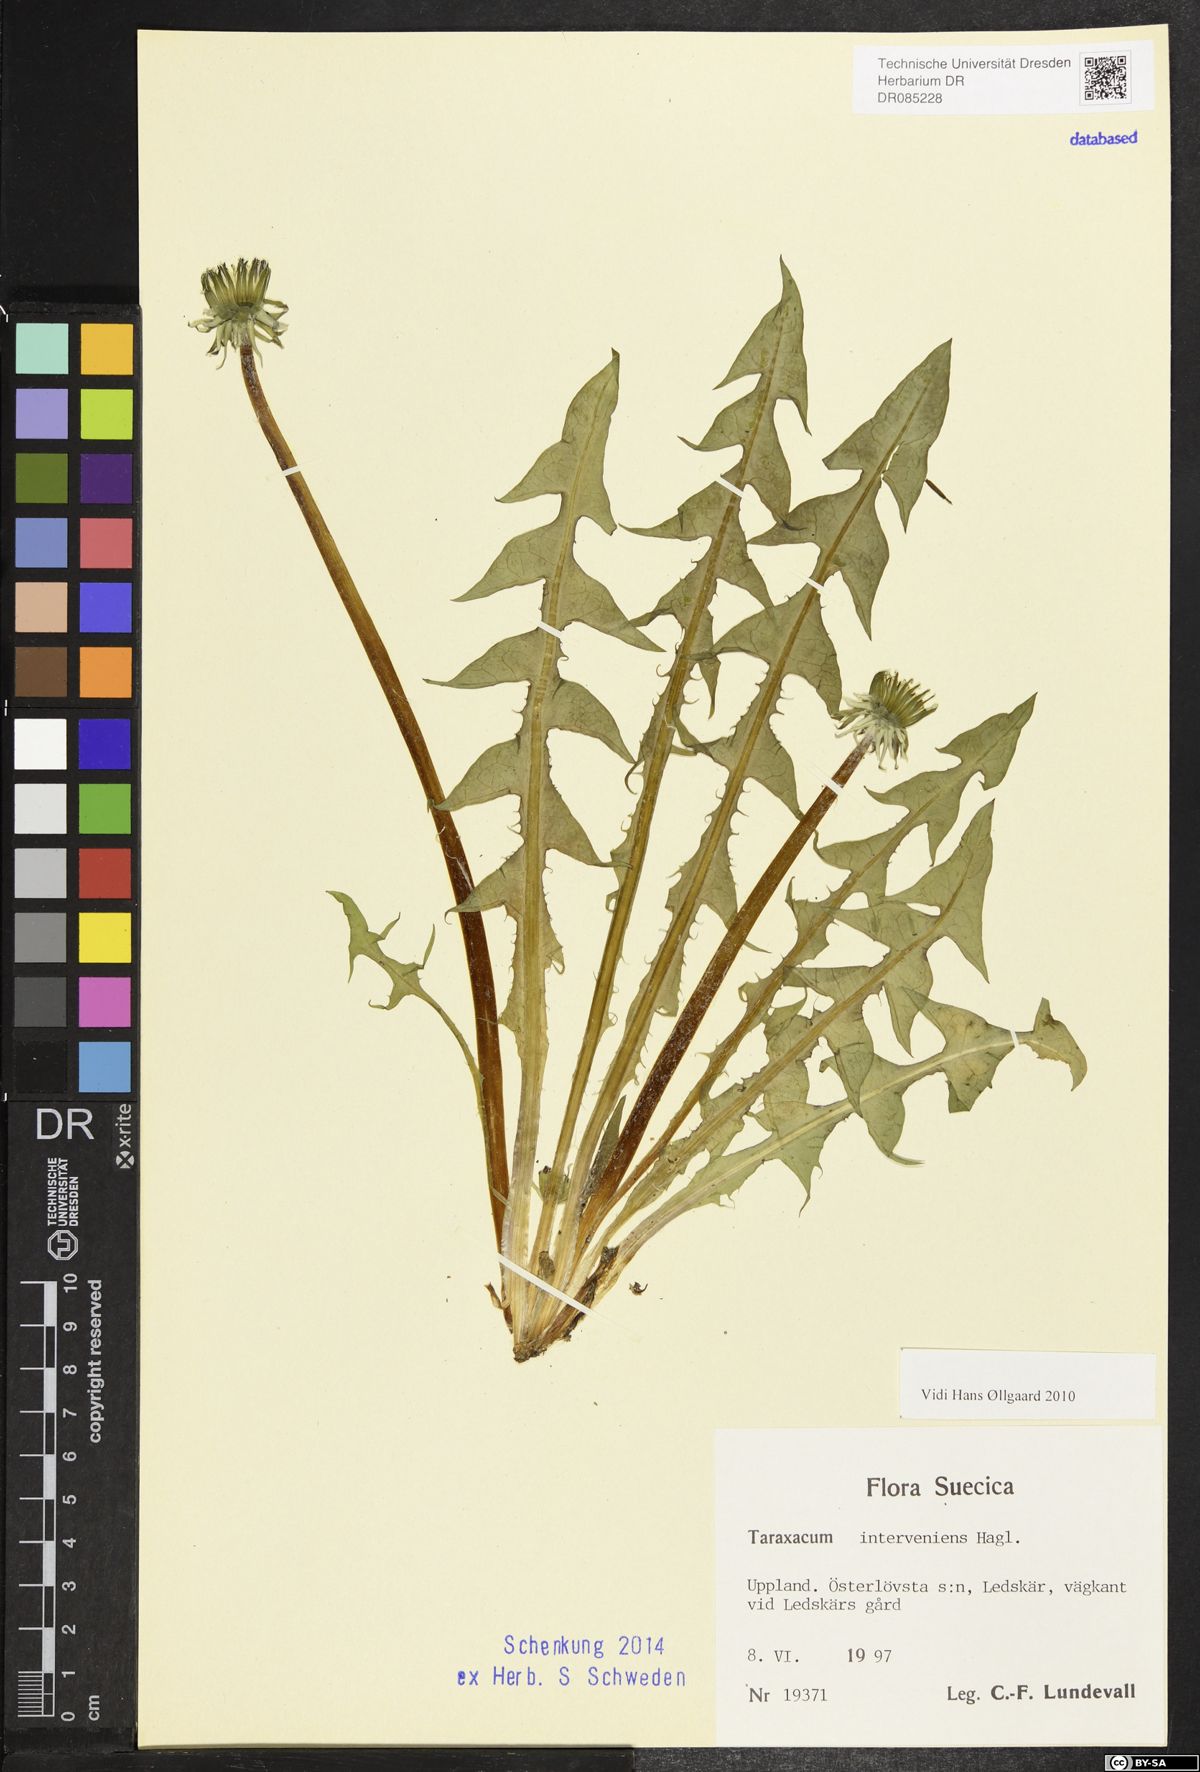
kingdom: Plantae
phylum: Tracheophyta
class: Magnoliopsida
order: Asterales
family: Asteraceae
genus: Taraxacum
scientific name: Taraxacum interveniens
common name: City dandelion
